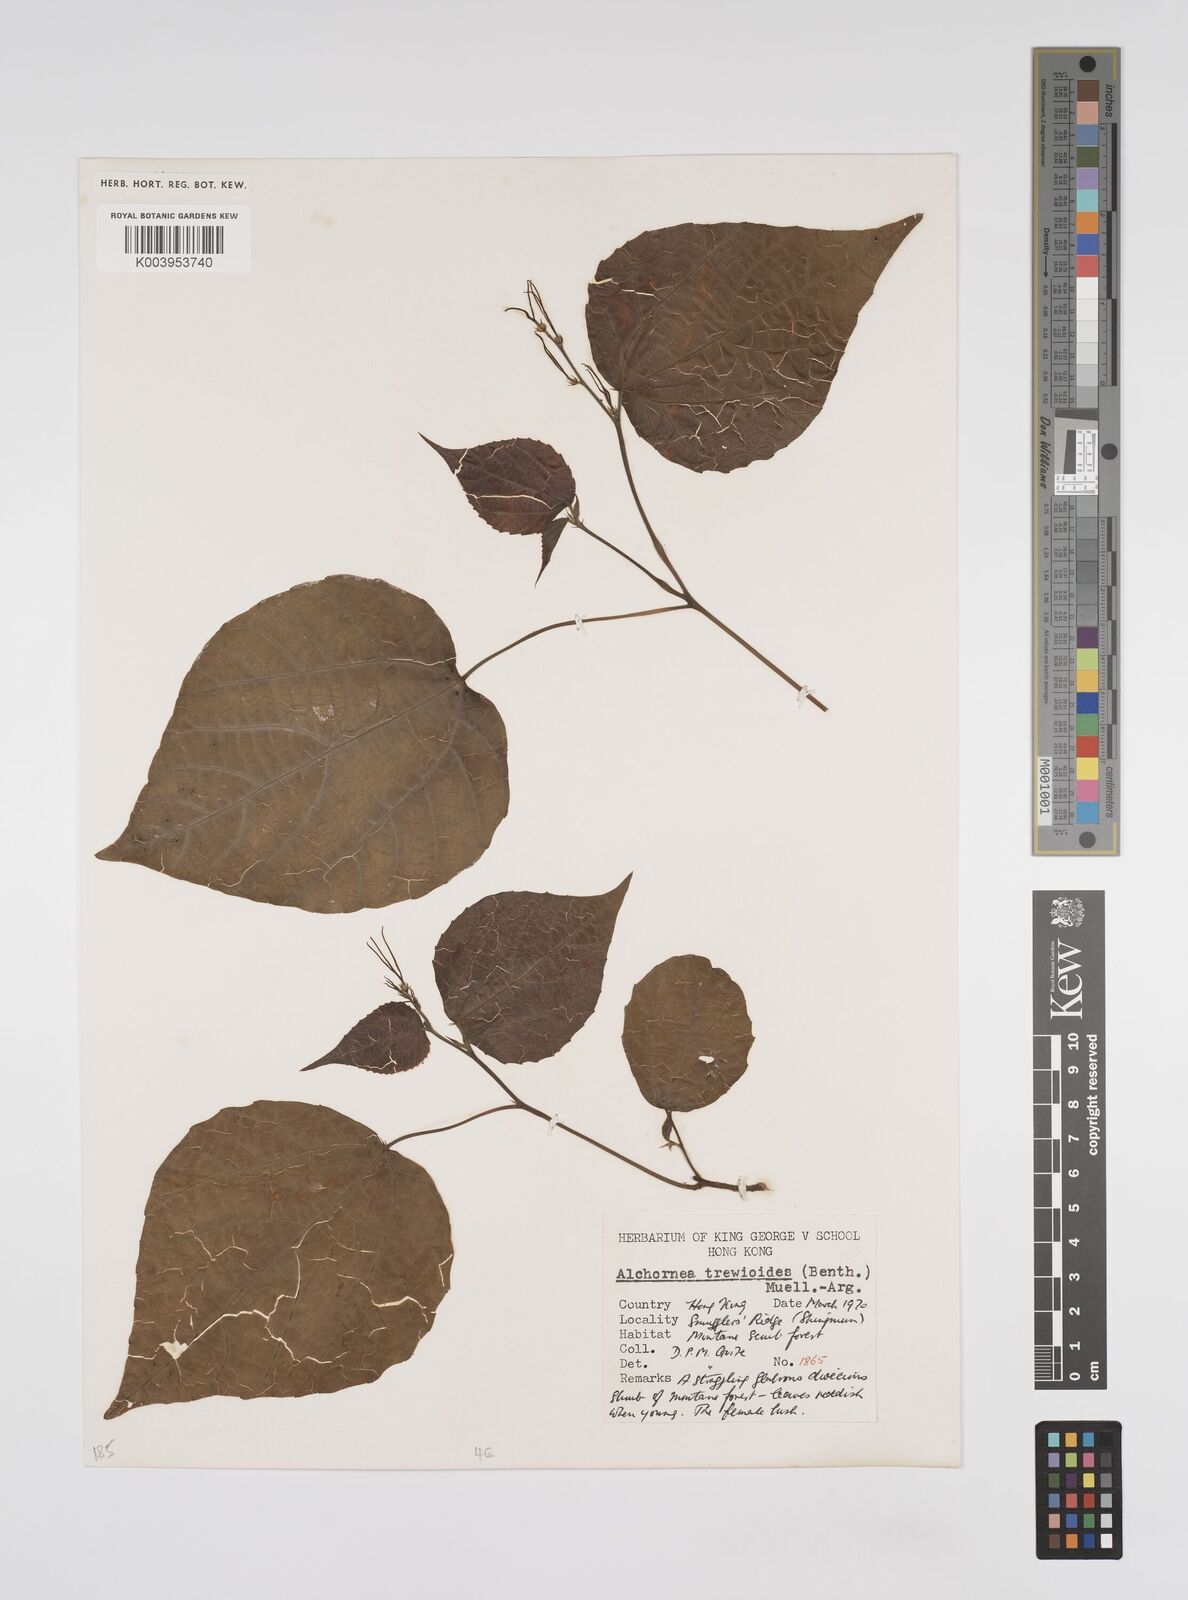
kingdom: Plantae
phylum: Tracheophyta
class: Magnoliopsida
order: Malpighiales
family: Euphorbiaceae
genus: Alchornea
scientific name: Alchornea trewioides
